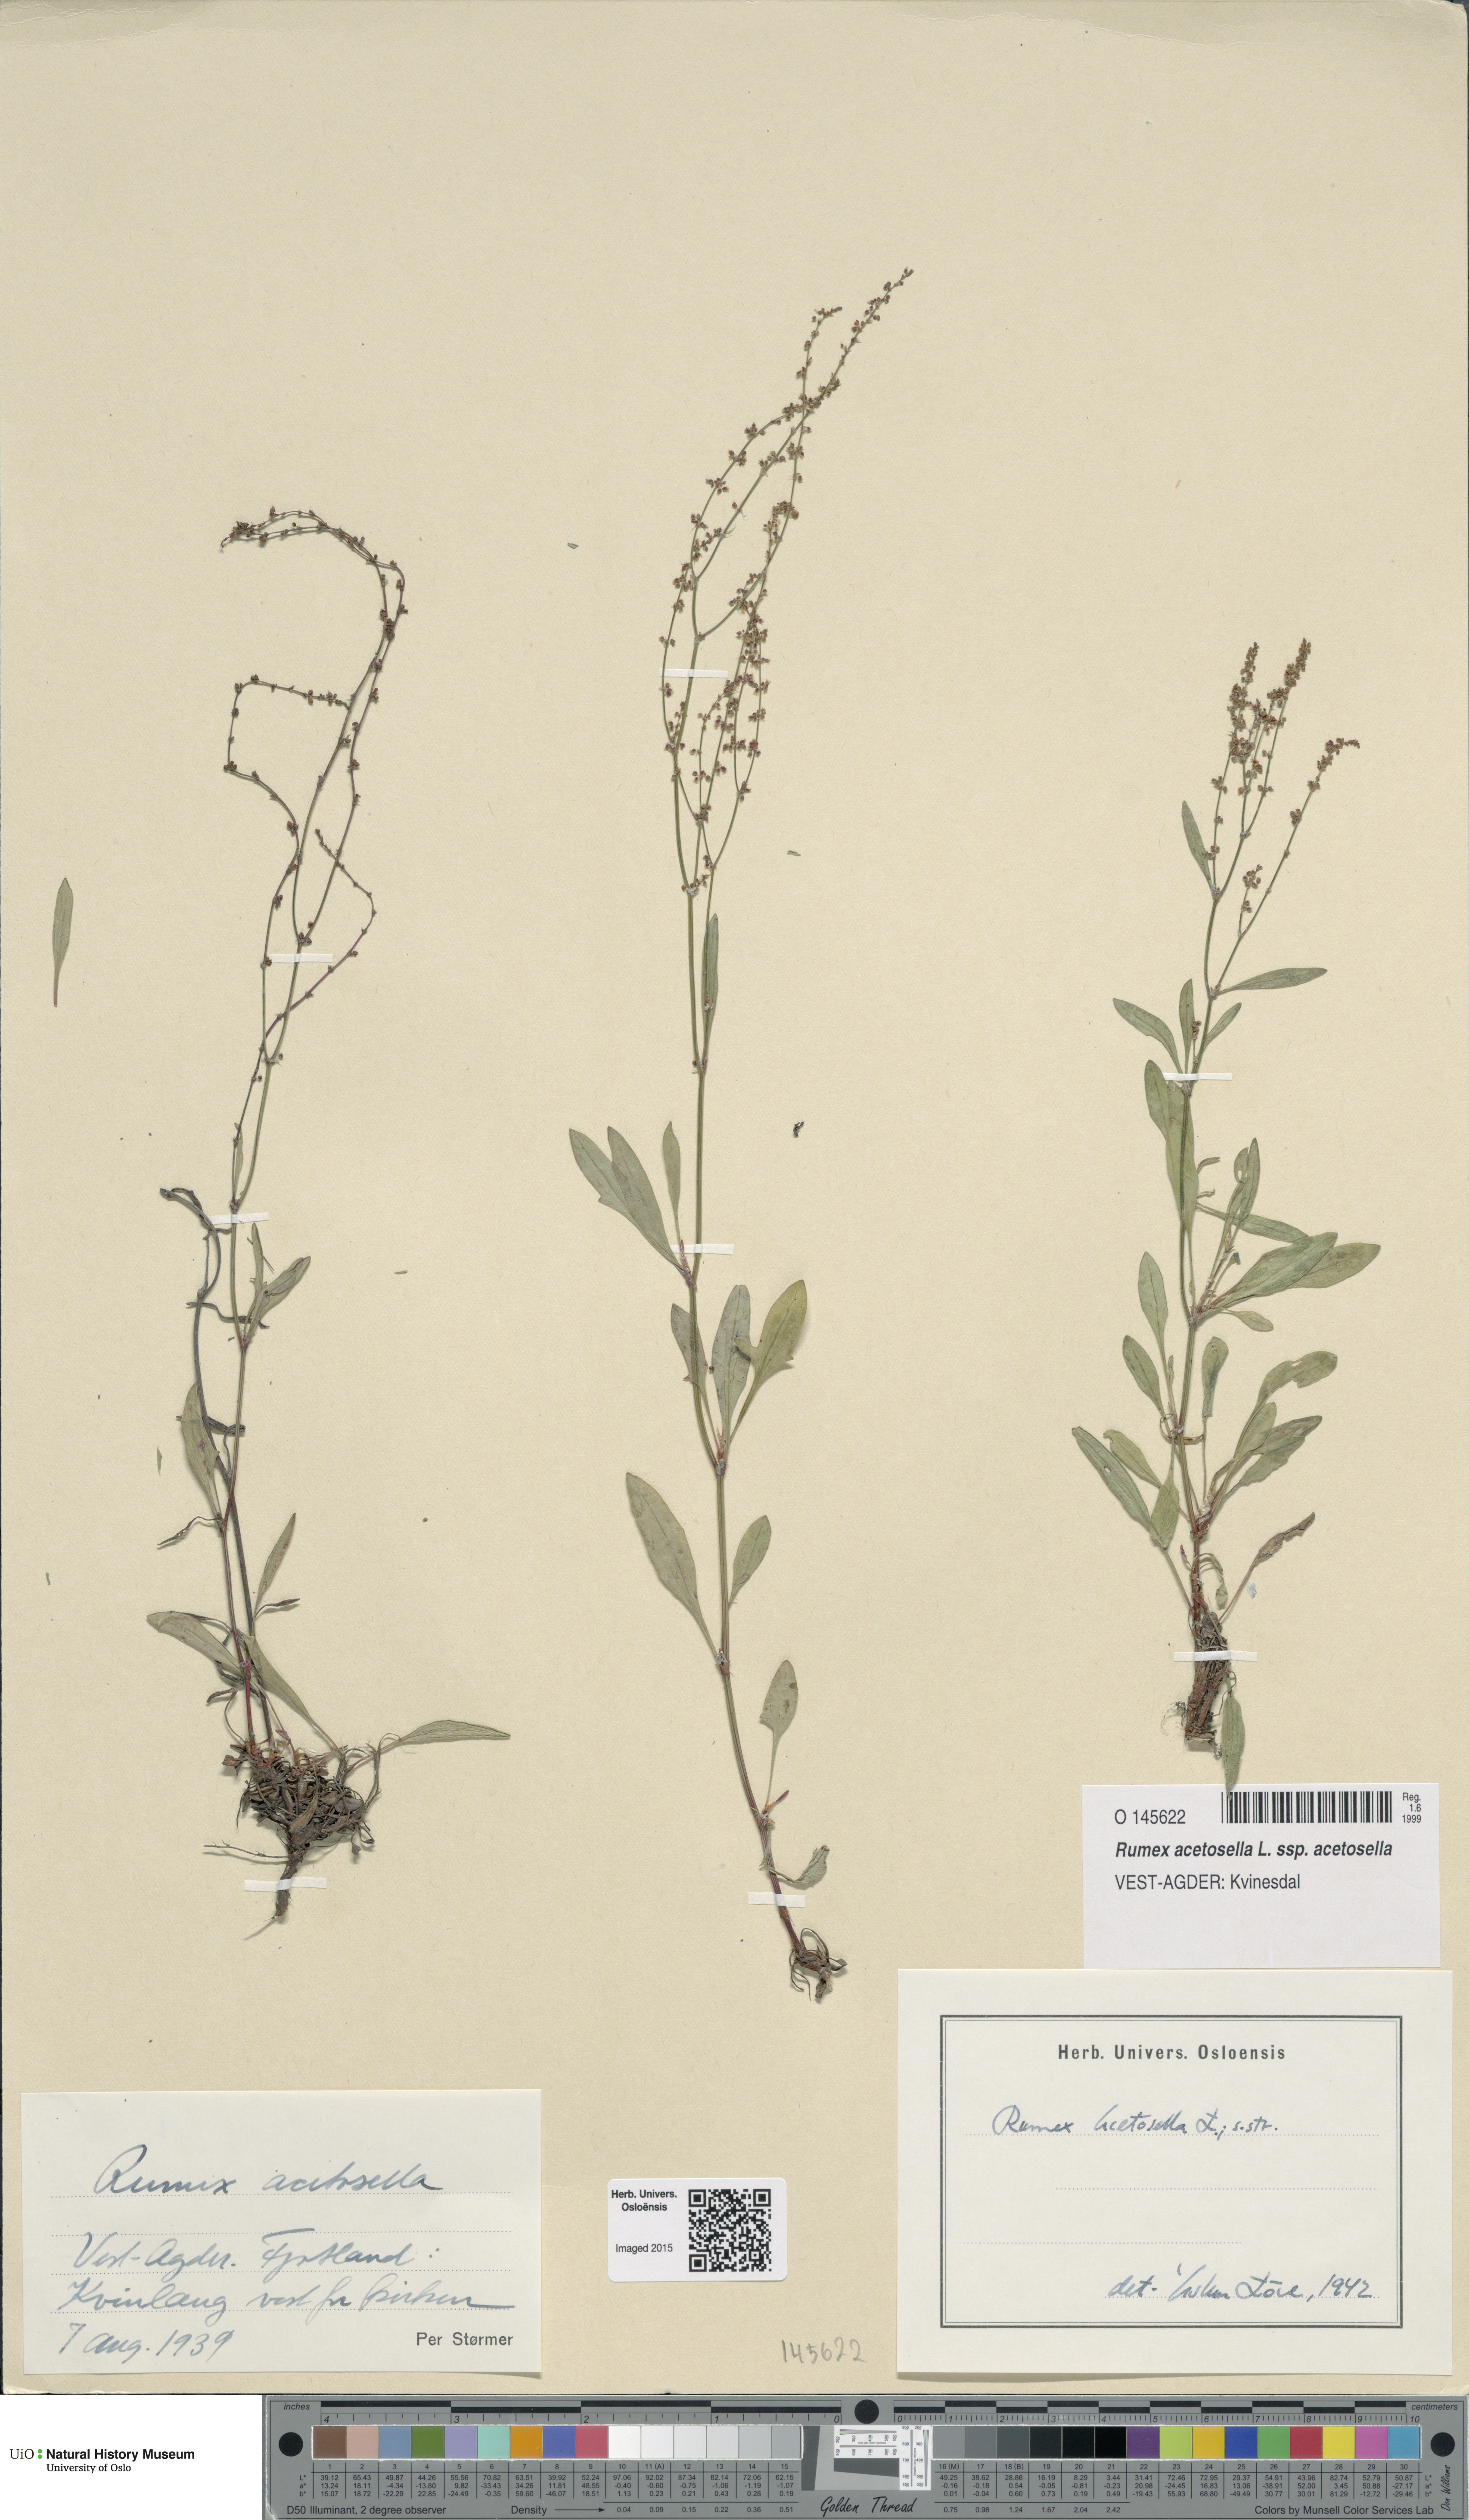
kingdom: Plantae
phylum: Tracheophyta
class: Magnoliopsida
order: Caryophyllales
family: Polygonaceae
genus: Rumex
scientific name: Rumex acetosella
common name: Common sheep sorrel
